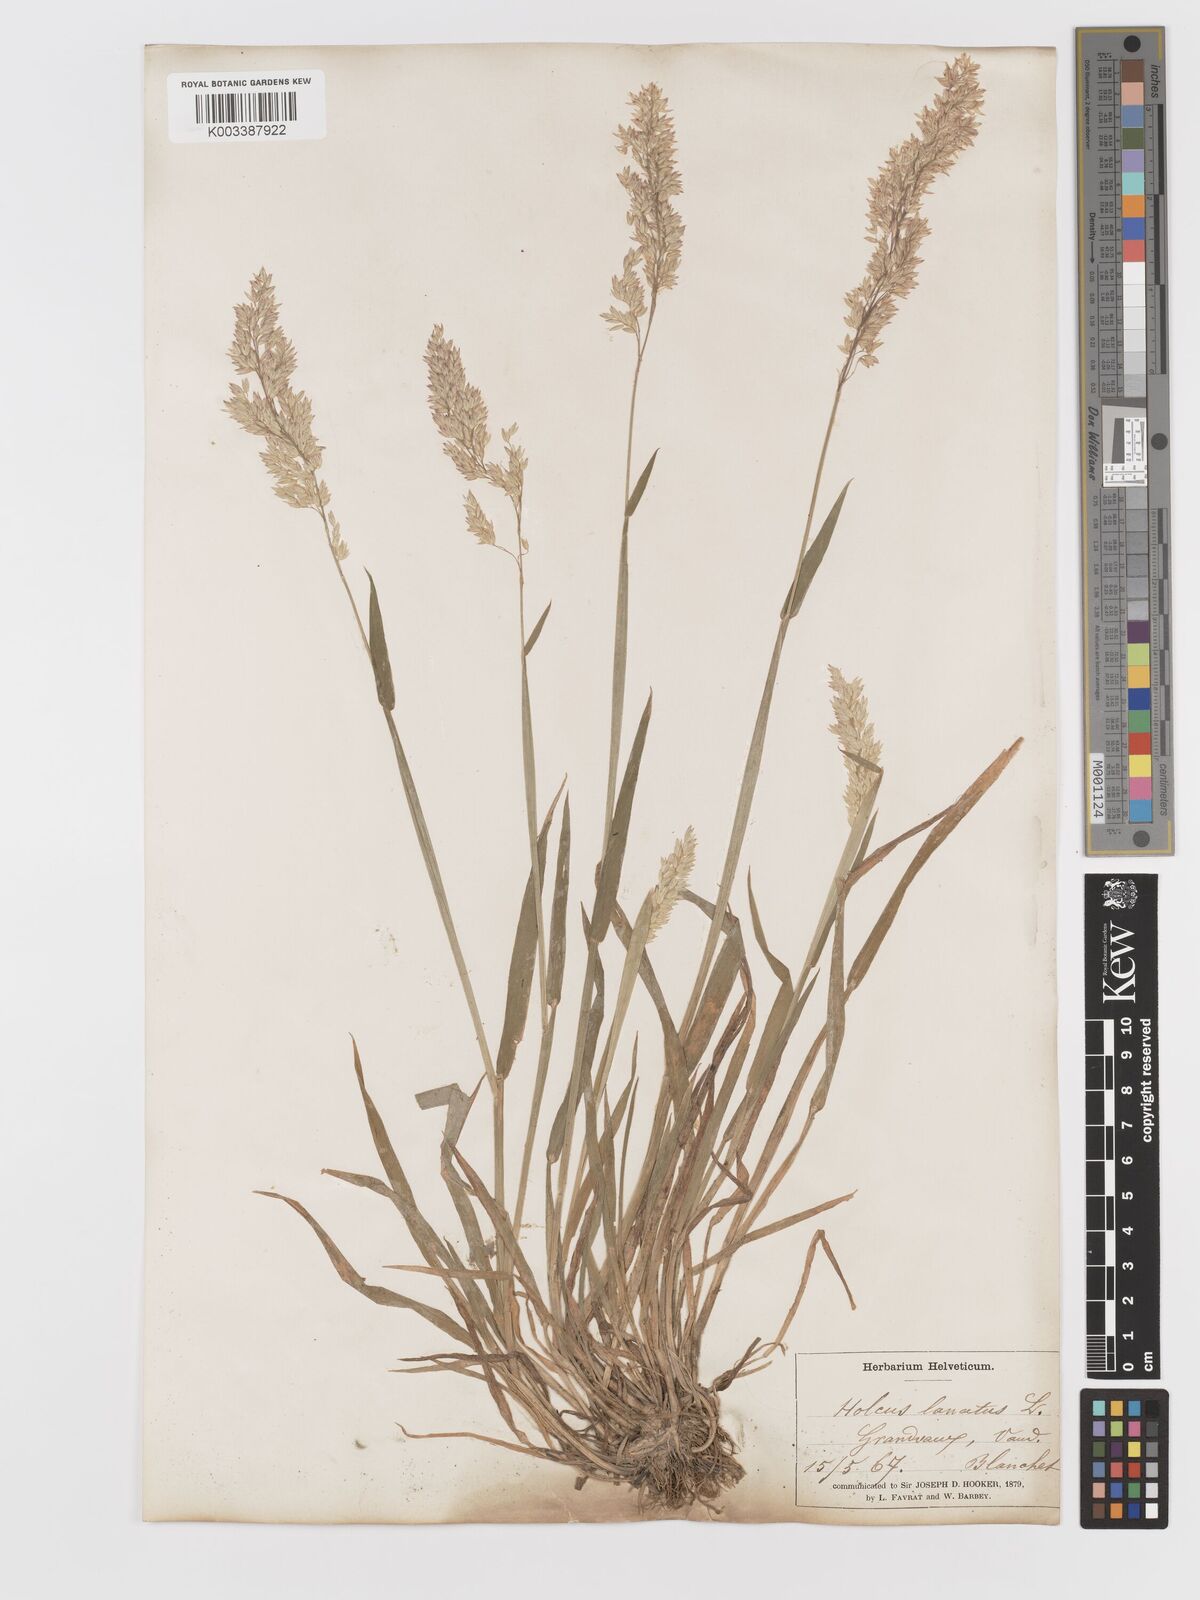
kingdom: Plantae
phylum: Tracheophyta
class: Liliopsida
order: Poales
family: Poaceae
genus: Holcus
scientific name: Holcus lanatus
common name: Yorkshire-fog
